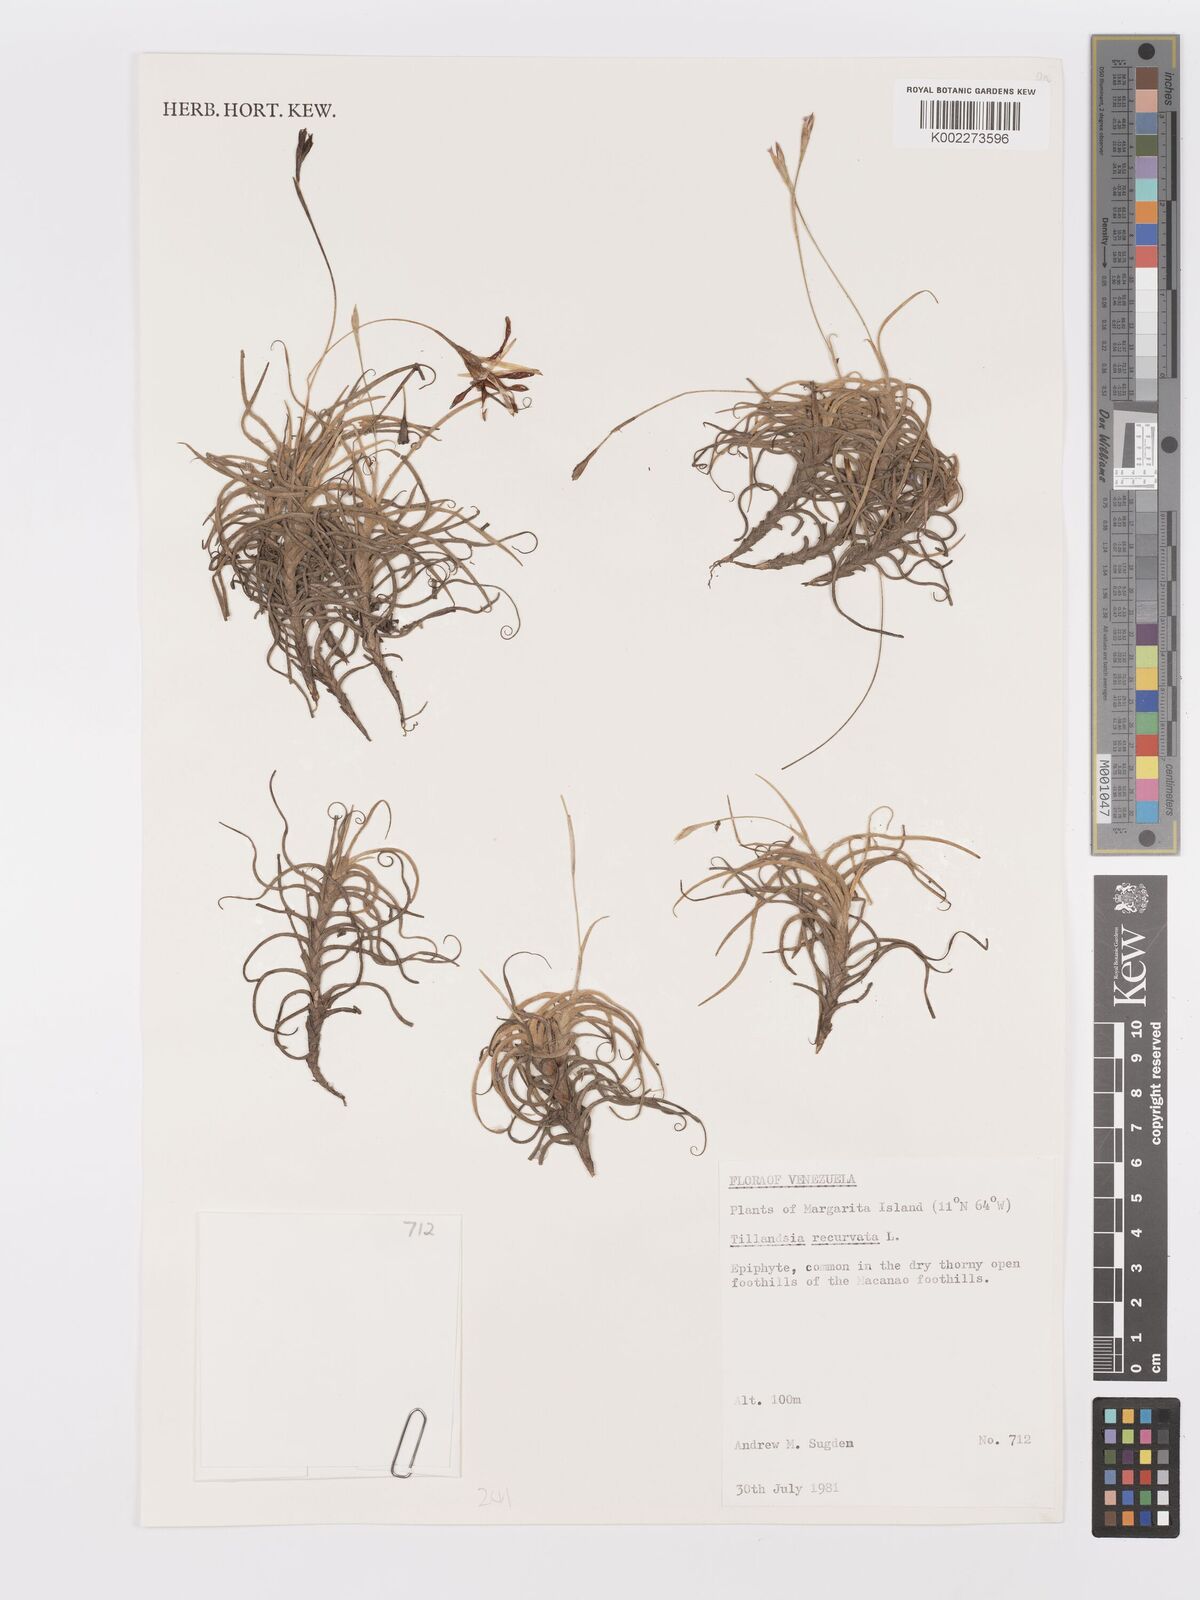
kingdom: Plantae
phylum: Tracheophyta
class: Liliopsida
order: Poales
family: Bromeliaceae
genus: Tillandsia
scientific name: Tillandsia recurvata
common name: Small ballmoss
